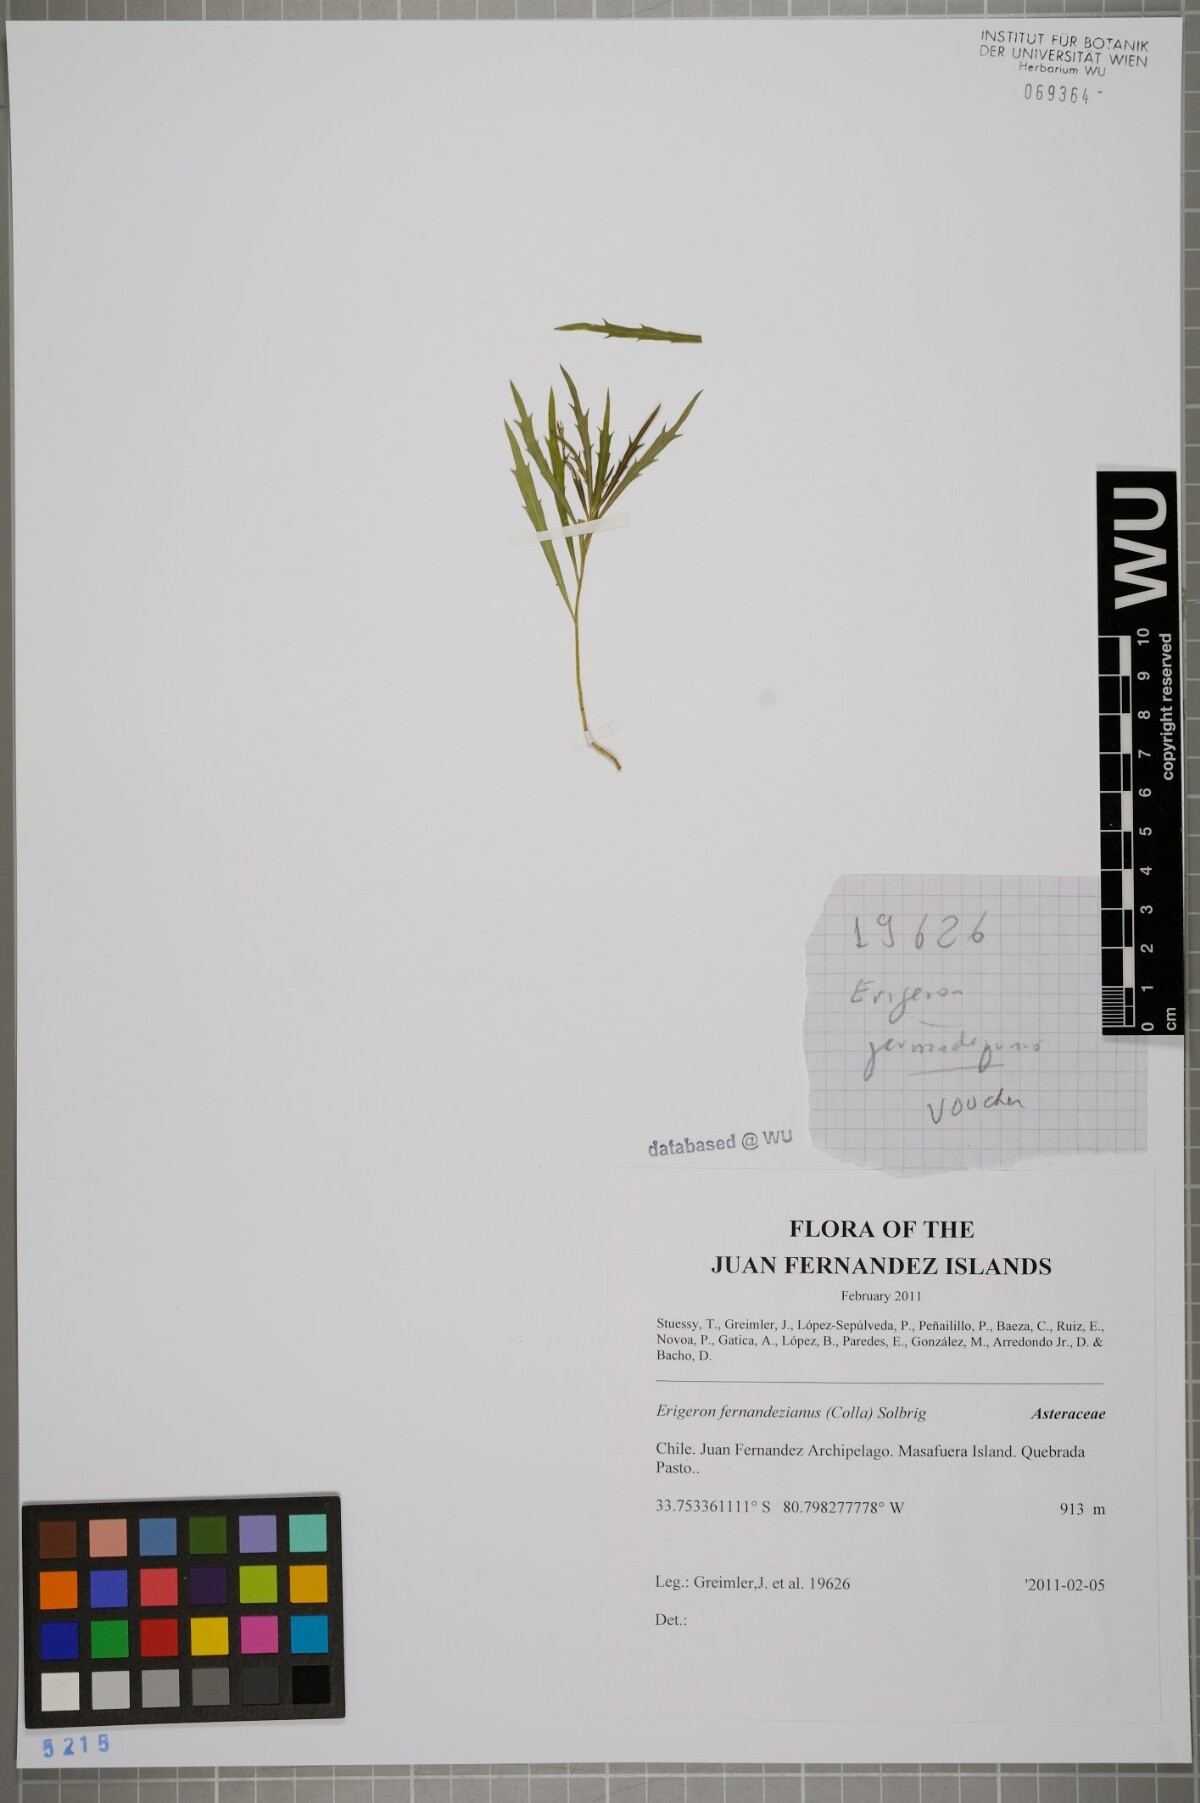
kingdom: Plantae
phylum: Tracheophyta
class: Magnoliopsida
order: Asterales
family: Asteraceae
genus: Erigeron
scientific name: Erigeron fernandezianus
